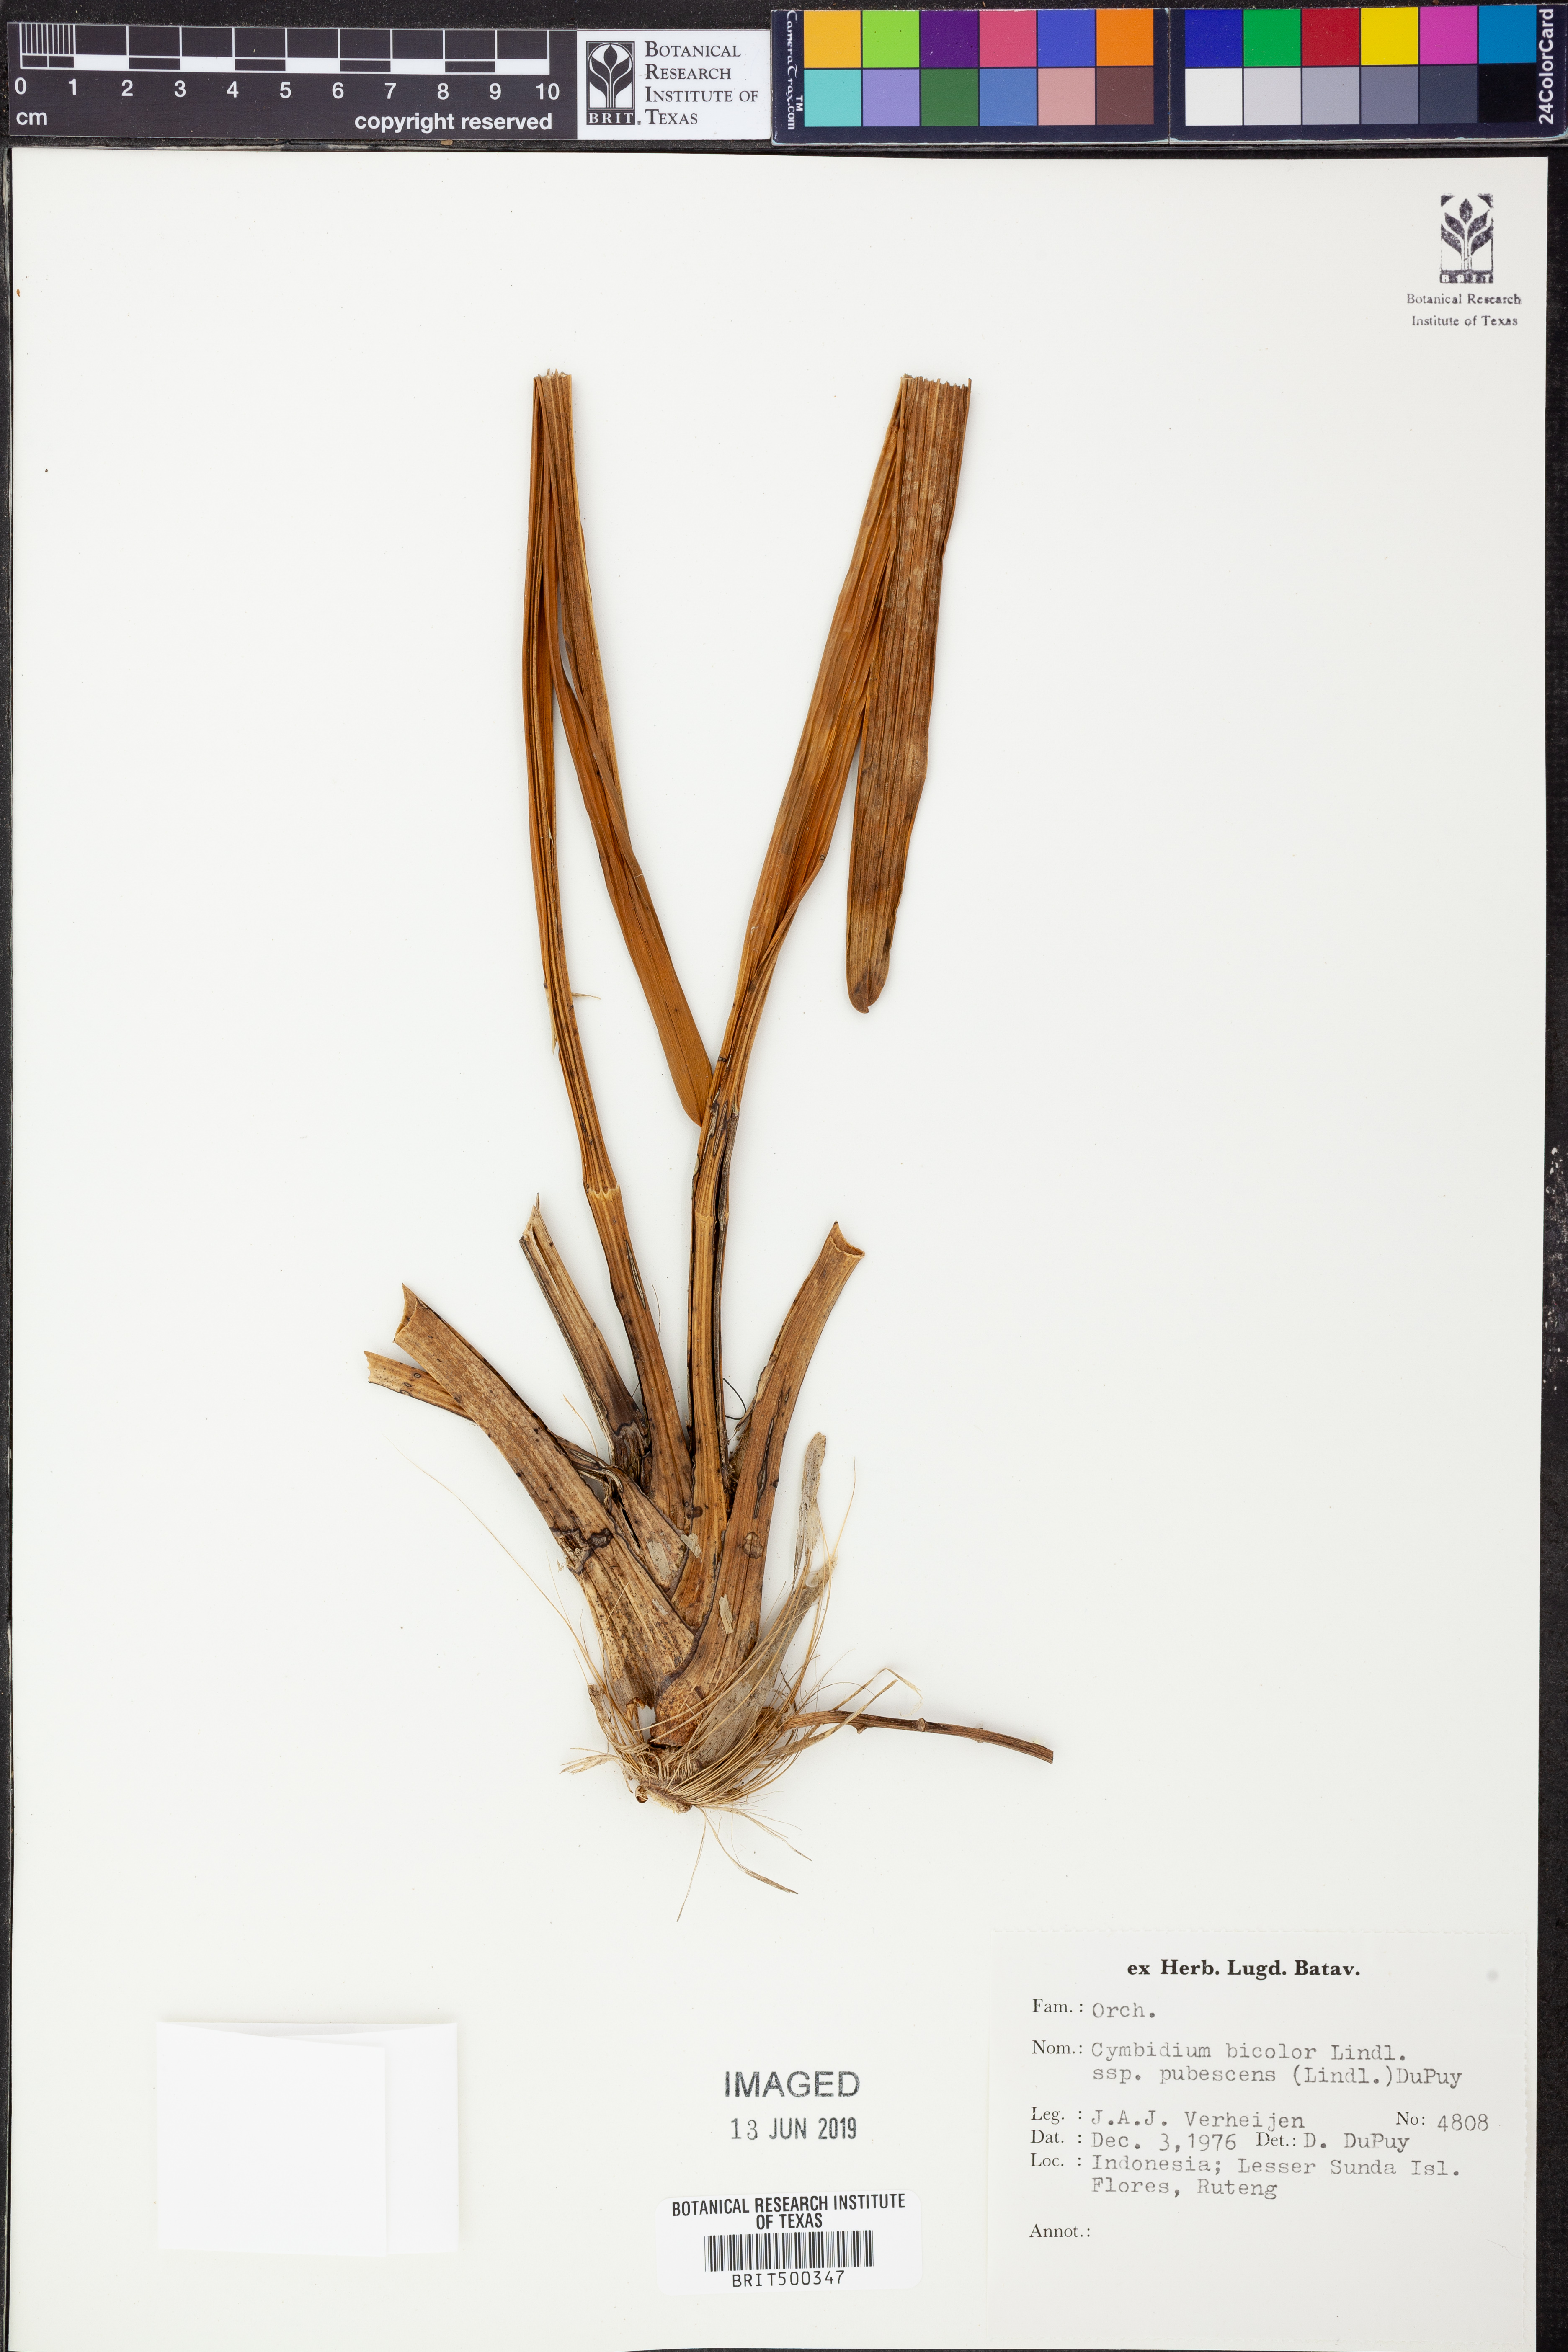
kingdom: Plantae
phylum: Tracheophyta
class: Liliopsida
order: Asparagales
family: Orchidaceae
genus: Cymbidium
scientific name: Cymbidium bicolor
